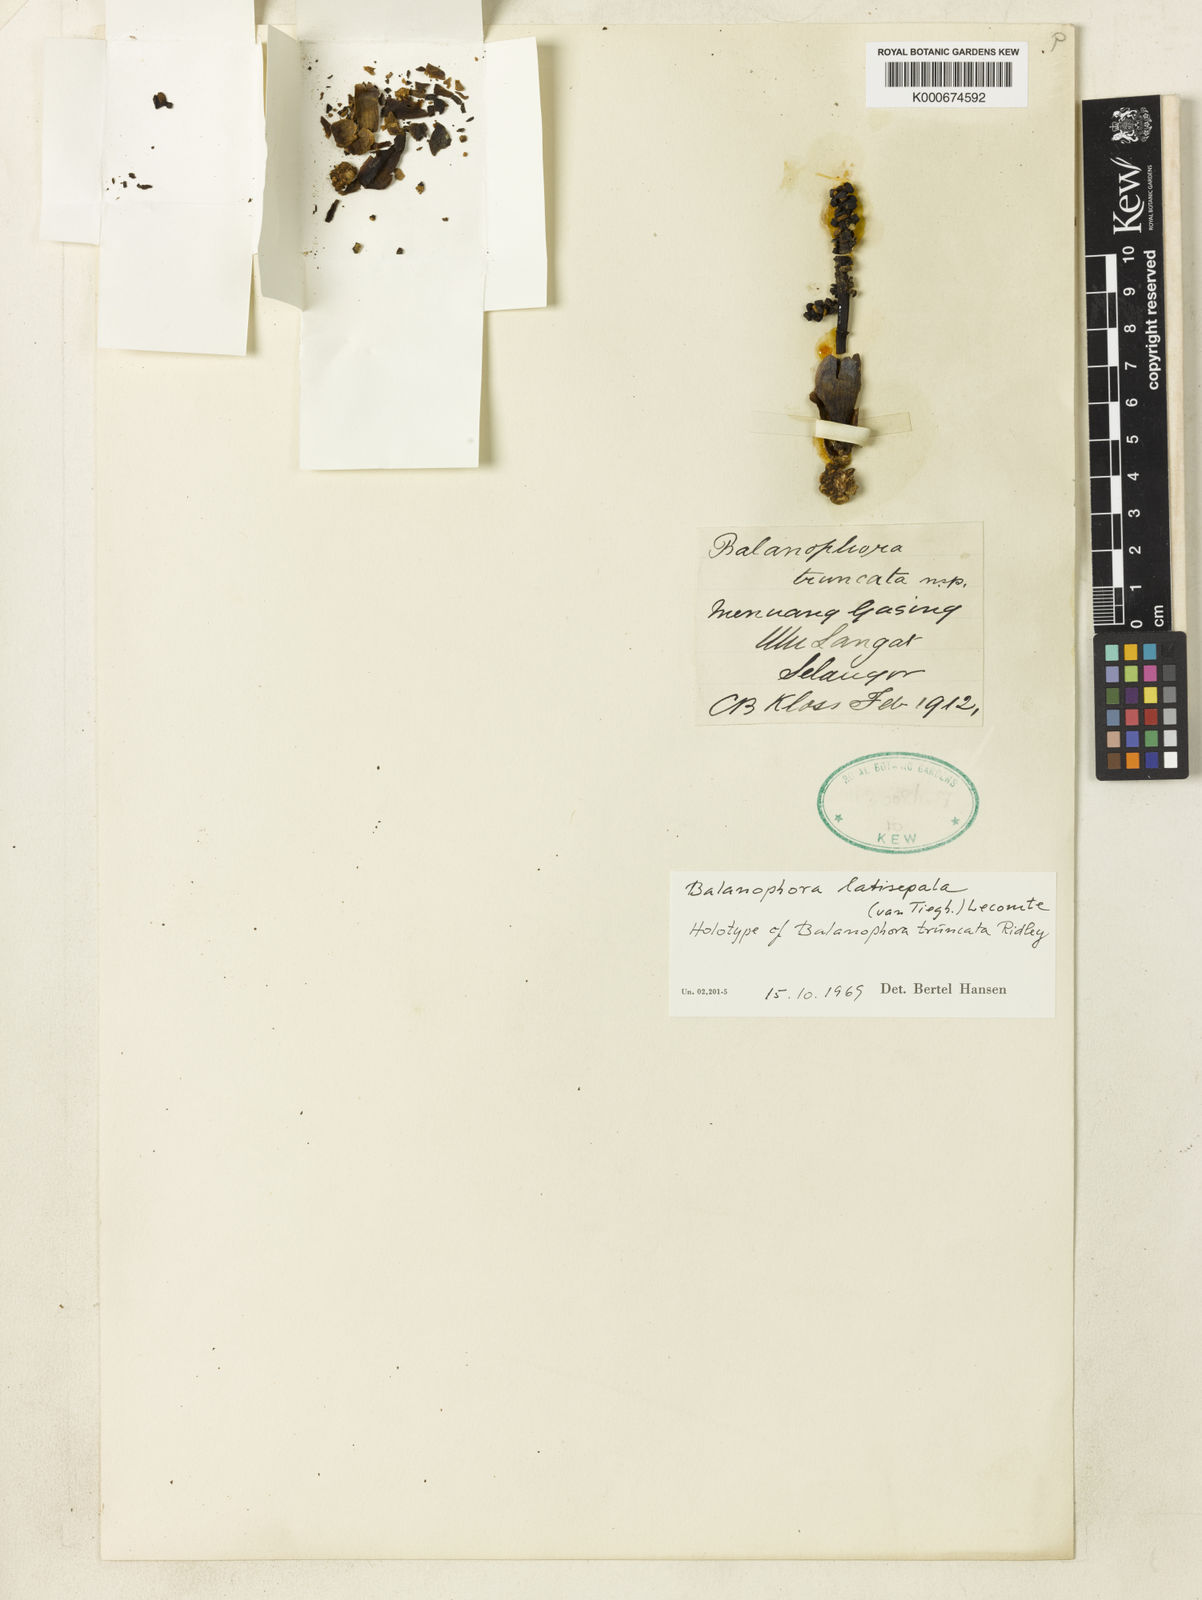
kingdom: Plantae
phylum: Tracheophyta
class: Magnoliopsida
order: Santalales
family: Balanophoraceae
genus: Balanophora
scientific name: Balanophora latisepala
